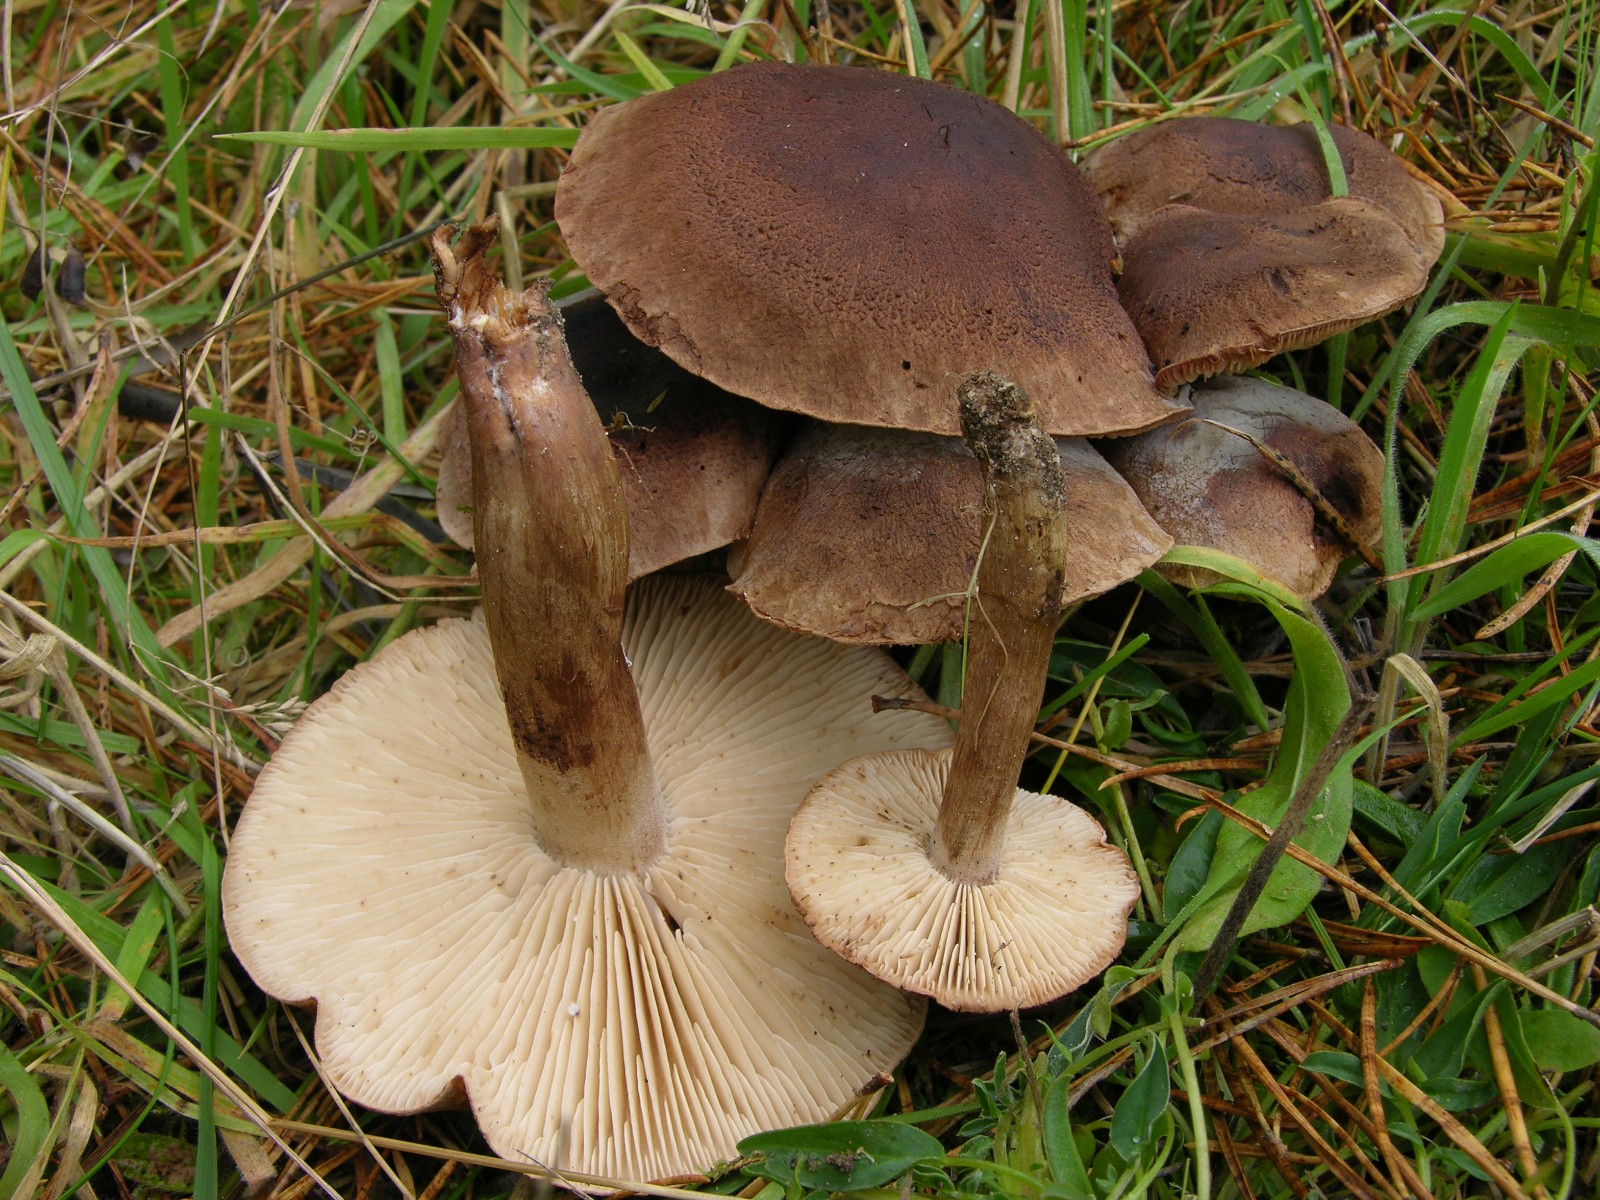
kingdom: Fungi
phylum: Basidiomycota
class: Agaricomycetes
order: Agaricales
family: Tricholomataceae
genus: Tricholoma
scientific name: Tricholoma imbricatum
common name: skællet ridderhat
